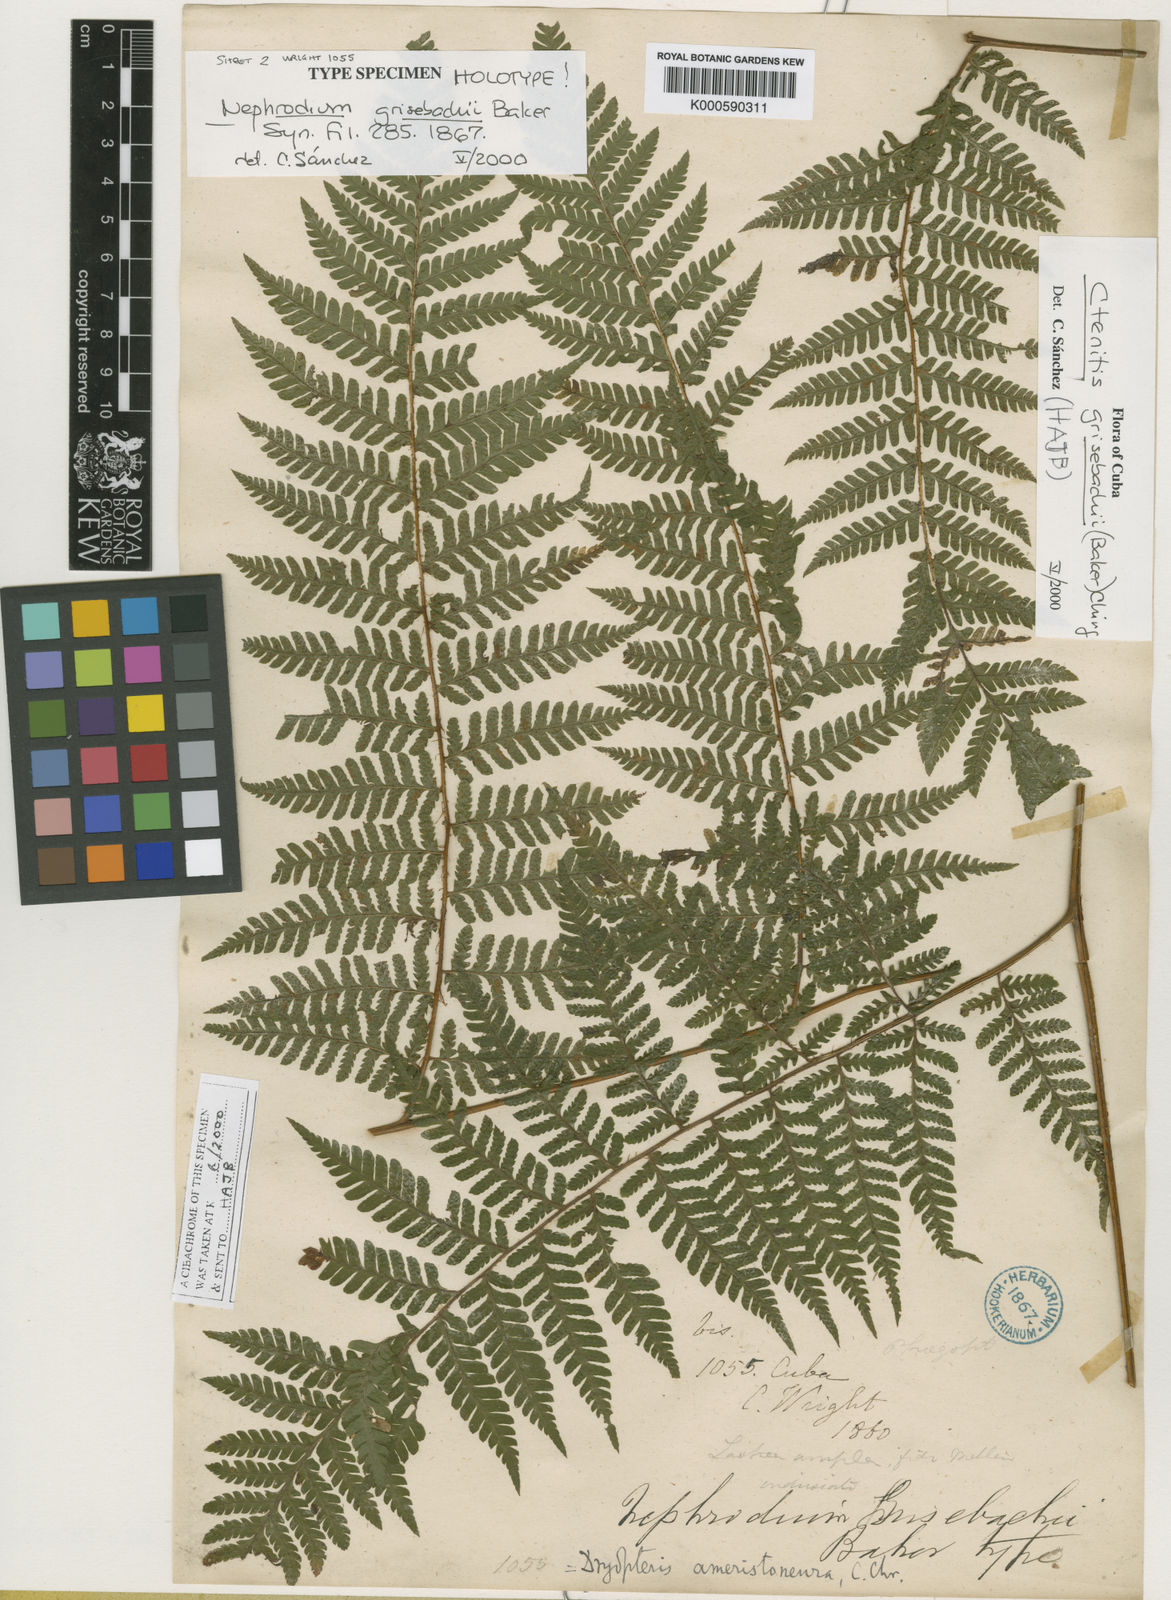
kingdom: Plantae
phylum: Tracheophyta
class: Polypodiopsida
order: Polypodiales
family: Dryopteridaceae
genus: Ctenitis
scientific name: Ctenitis grisebachii
